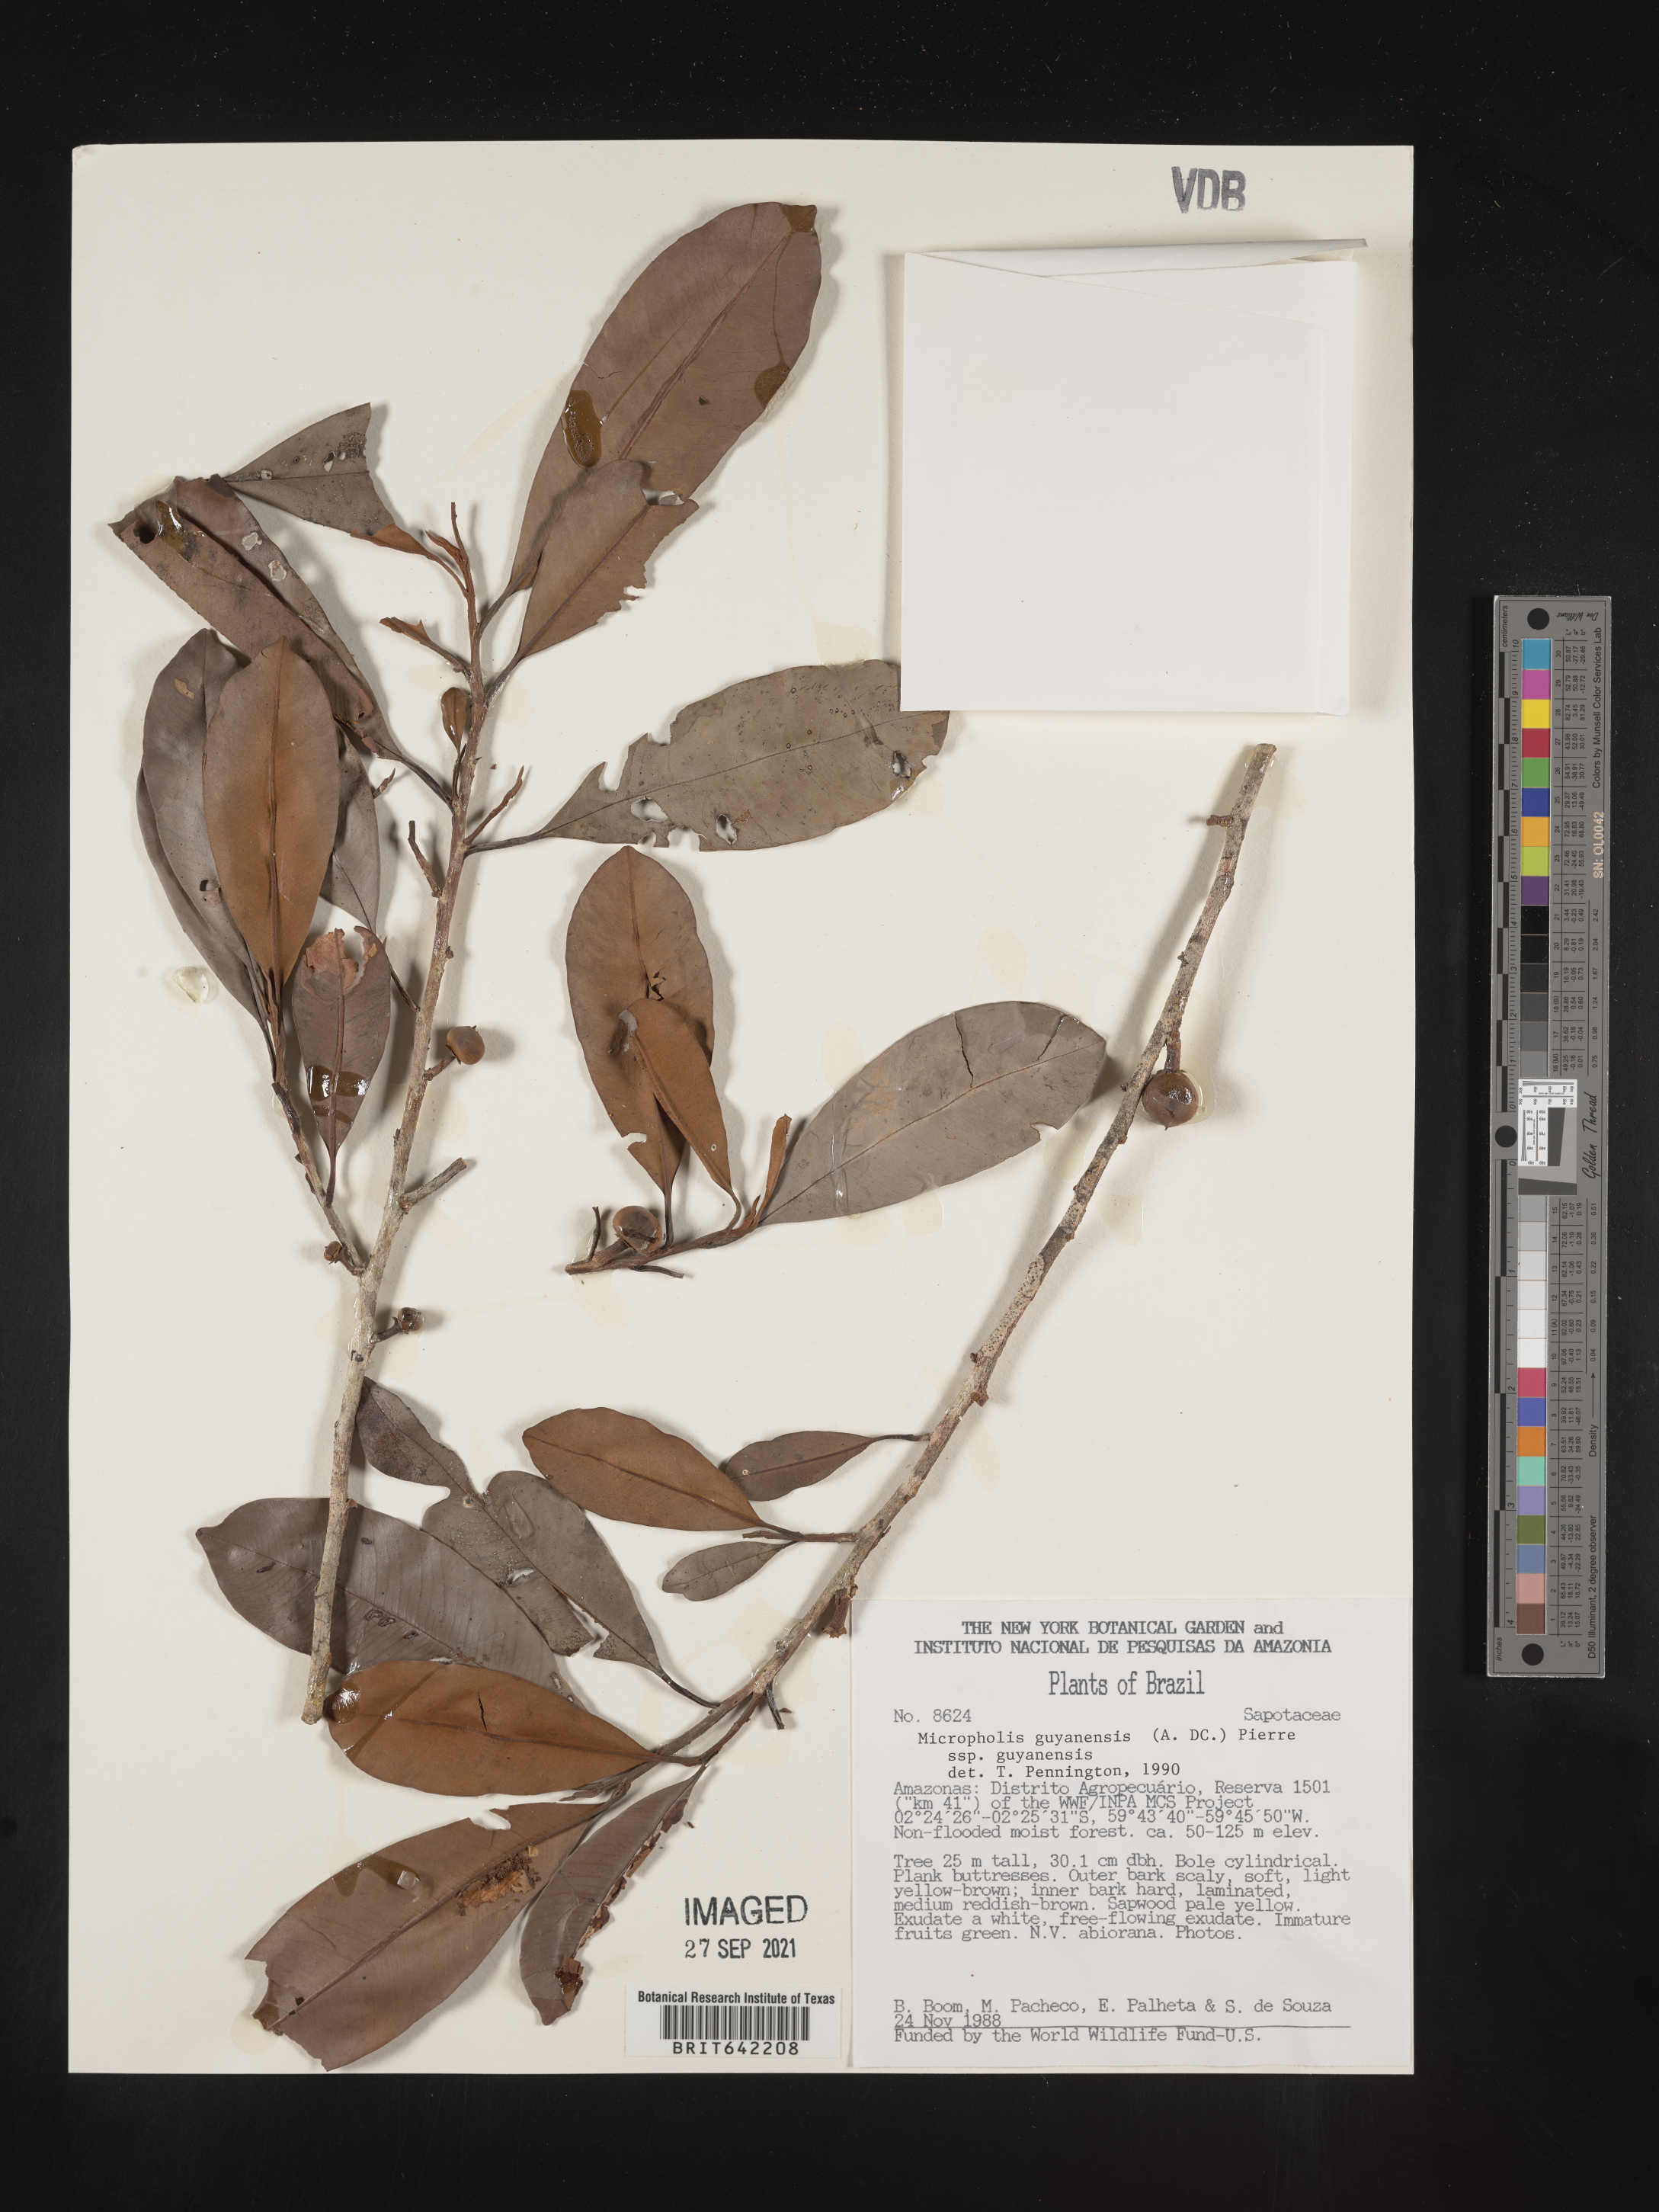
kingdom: Plantae
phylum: Tracheophyta
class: Magnoliopsida
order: Ericales
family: Sapotaceae
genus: Micropholis
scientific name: Micropholis
